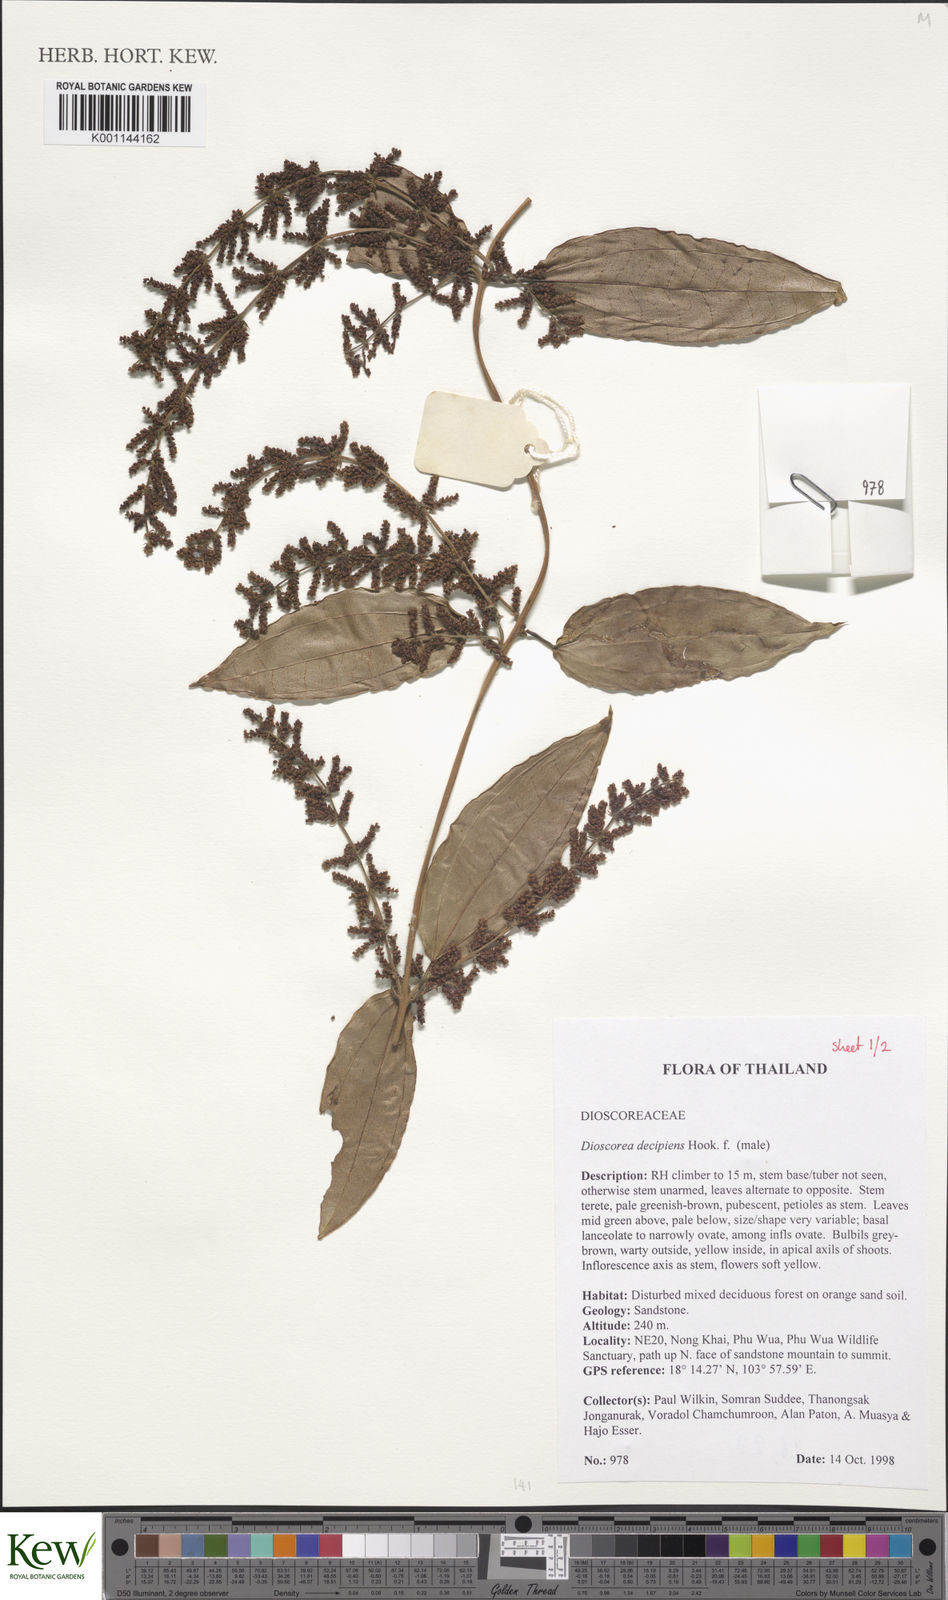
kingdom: Plantae
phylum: Tracheophyta
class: Liliopsida
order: Dioscoreales
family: Dioscoreaceae
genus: Dioscorea
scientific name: Dioscorea decipiens
